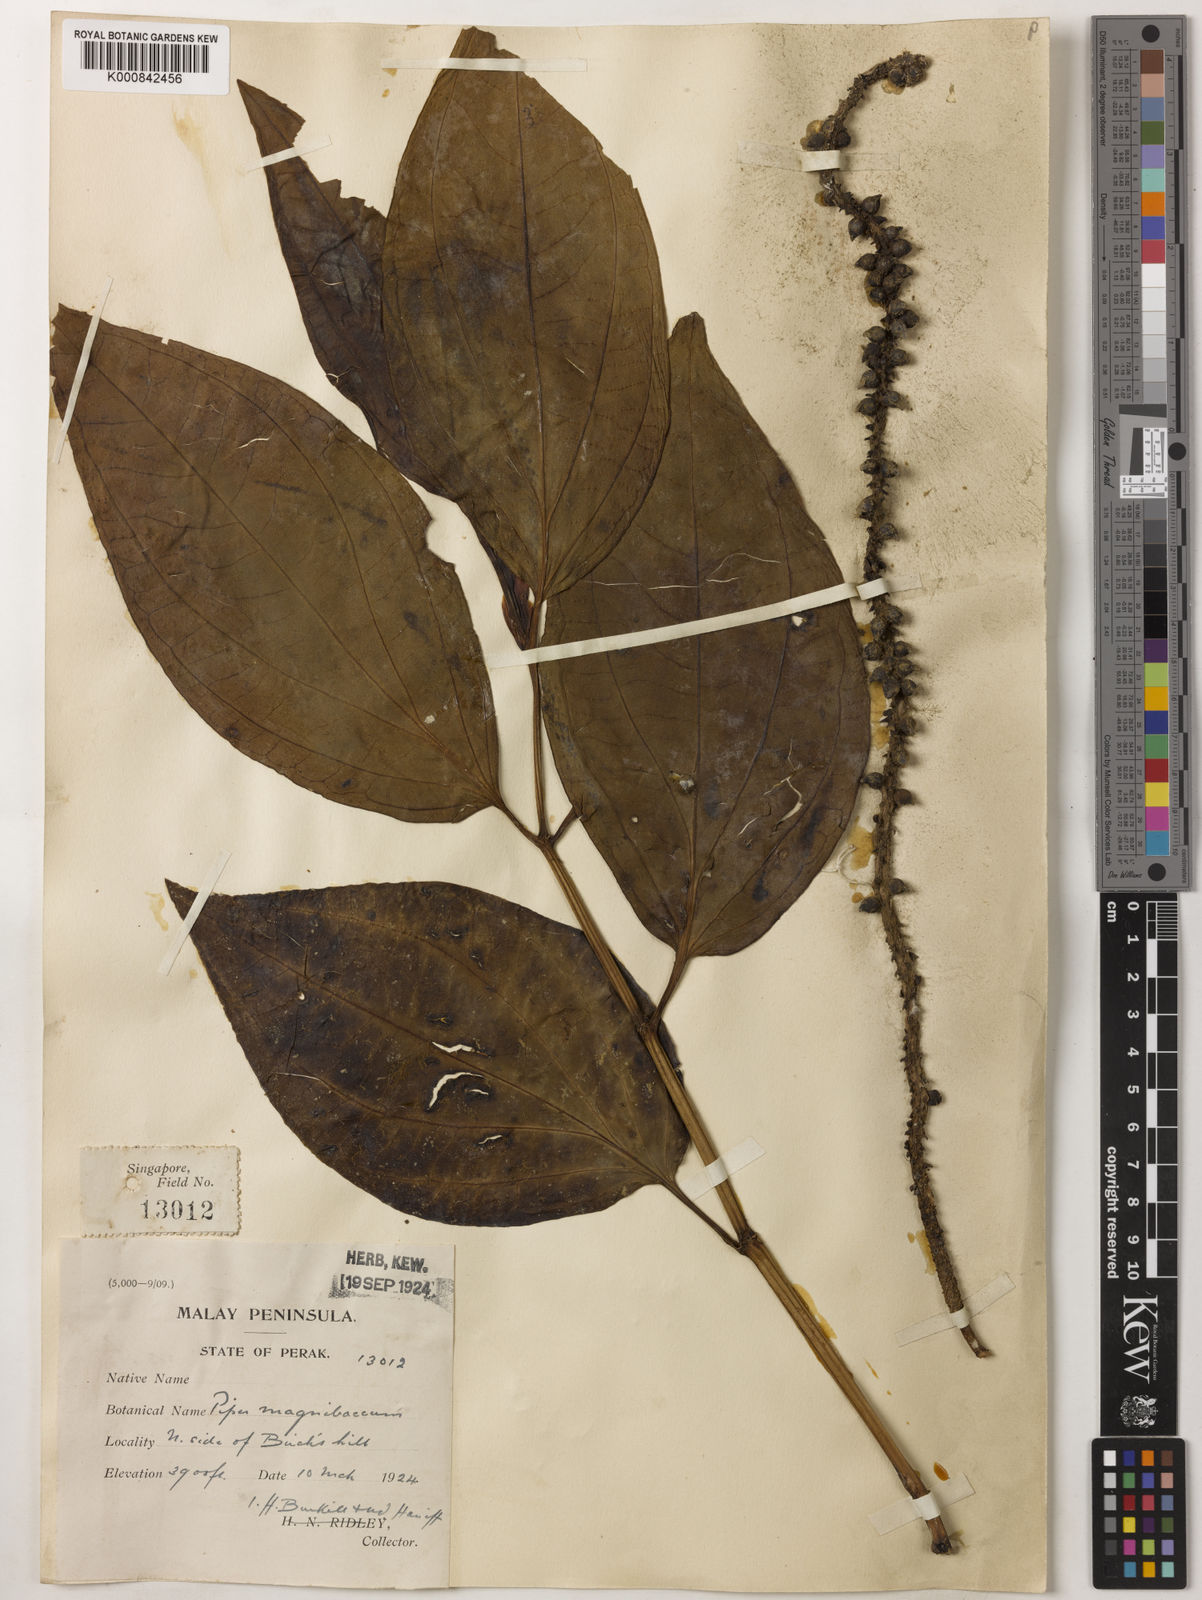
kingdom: Plantae
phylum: Tracheophyta
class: Magnoliopsida
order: Piperales
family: Piperaceae
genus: Piper
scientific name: Piper quinqueangulatum
